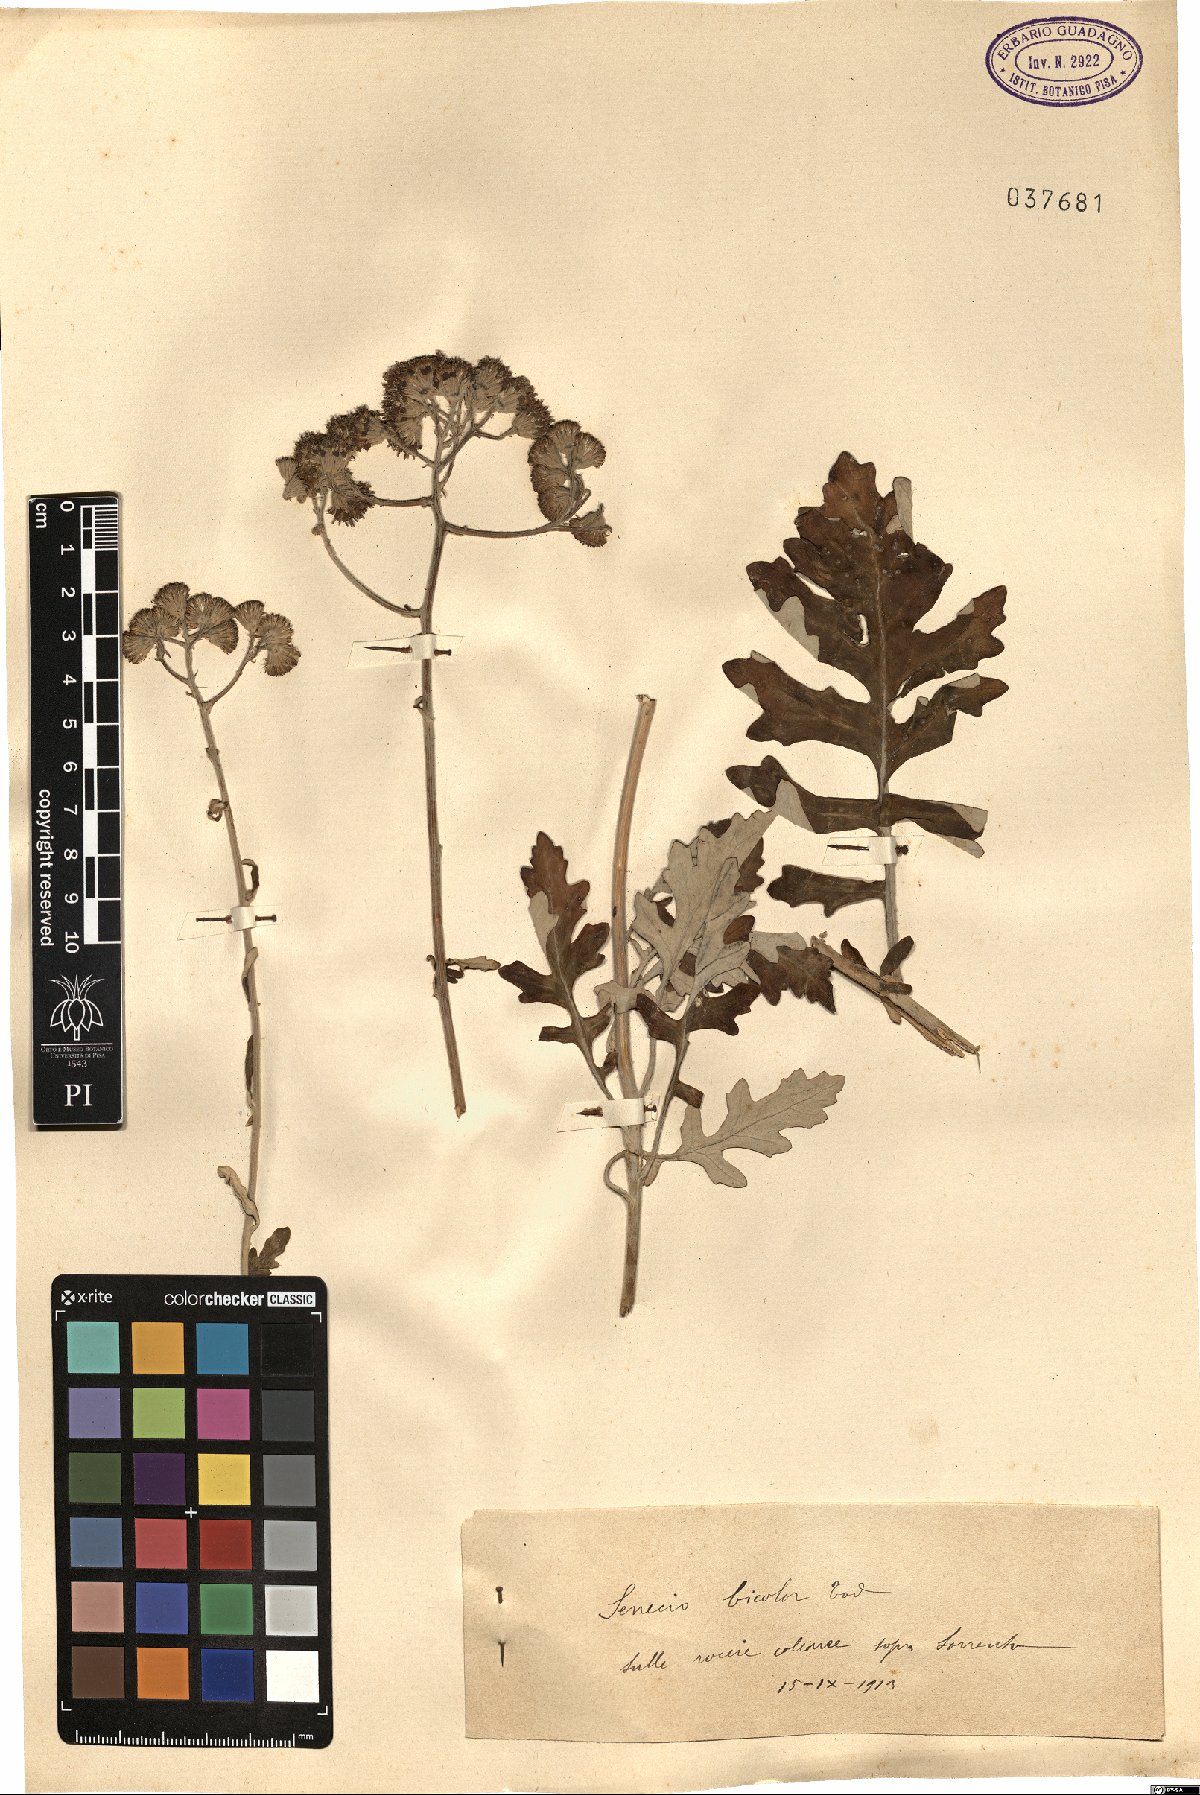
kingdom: Plantae
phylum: Tracheophyta
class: Magnoliopsida
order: Asterales
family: Asteraceae
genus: Jacobaea
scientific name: Jacobaea maritima
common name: Silver ragwort
